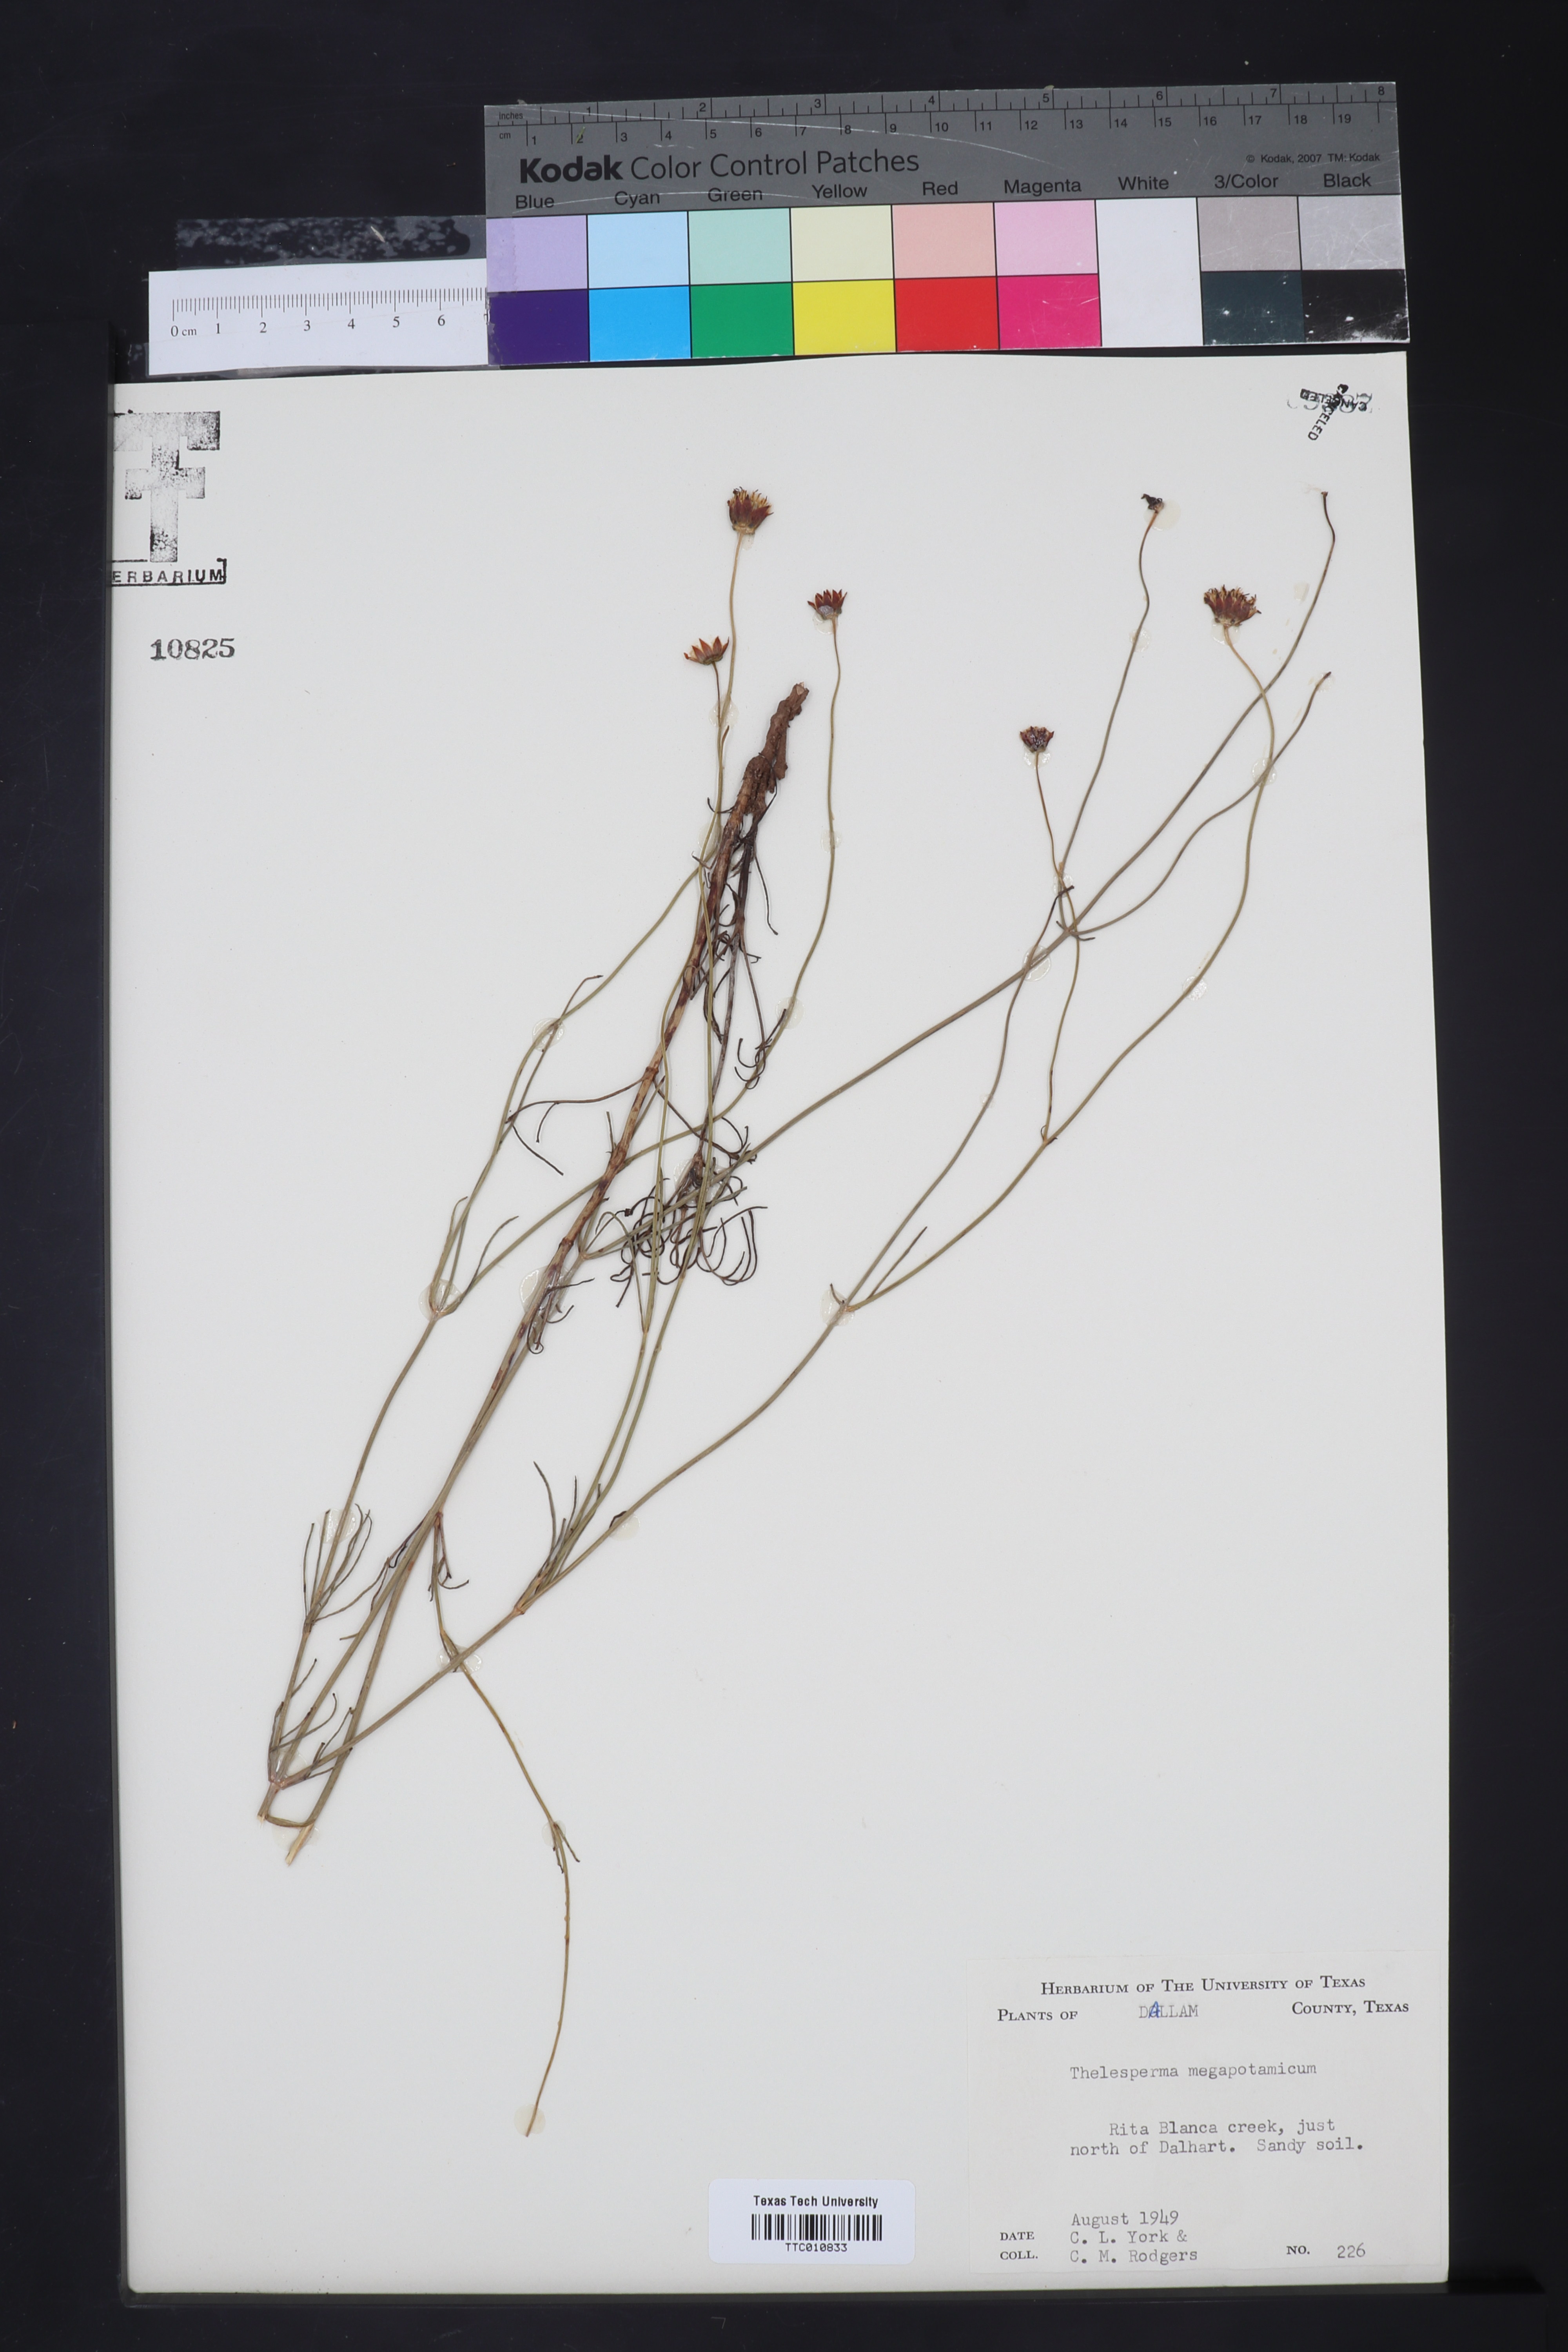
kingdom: Plantae
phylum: Tracheophyta
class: Magnoliopsida
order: Asterales
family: Asteraceae
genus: Thelesperma
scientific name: Thelesperma megapotamicum
